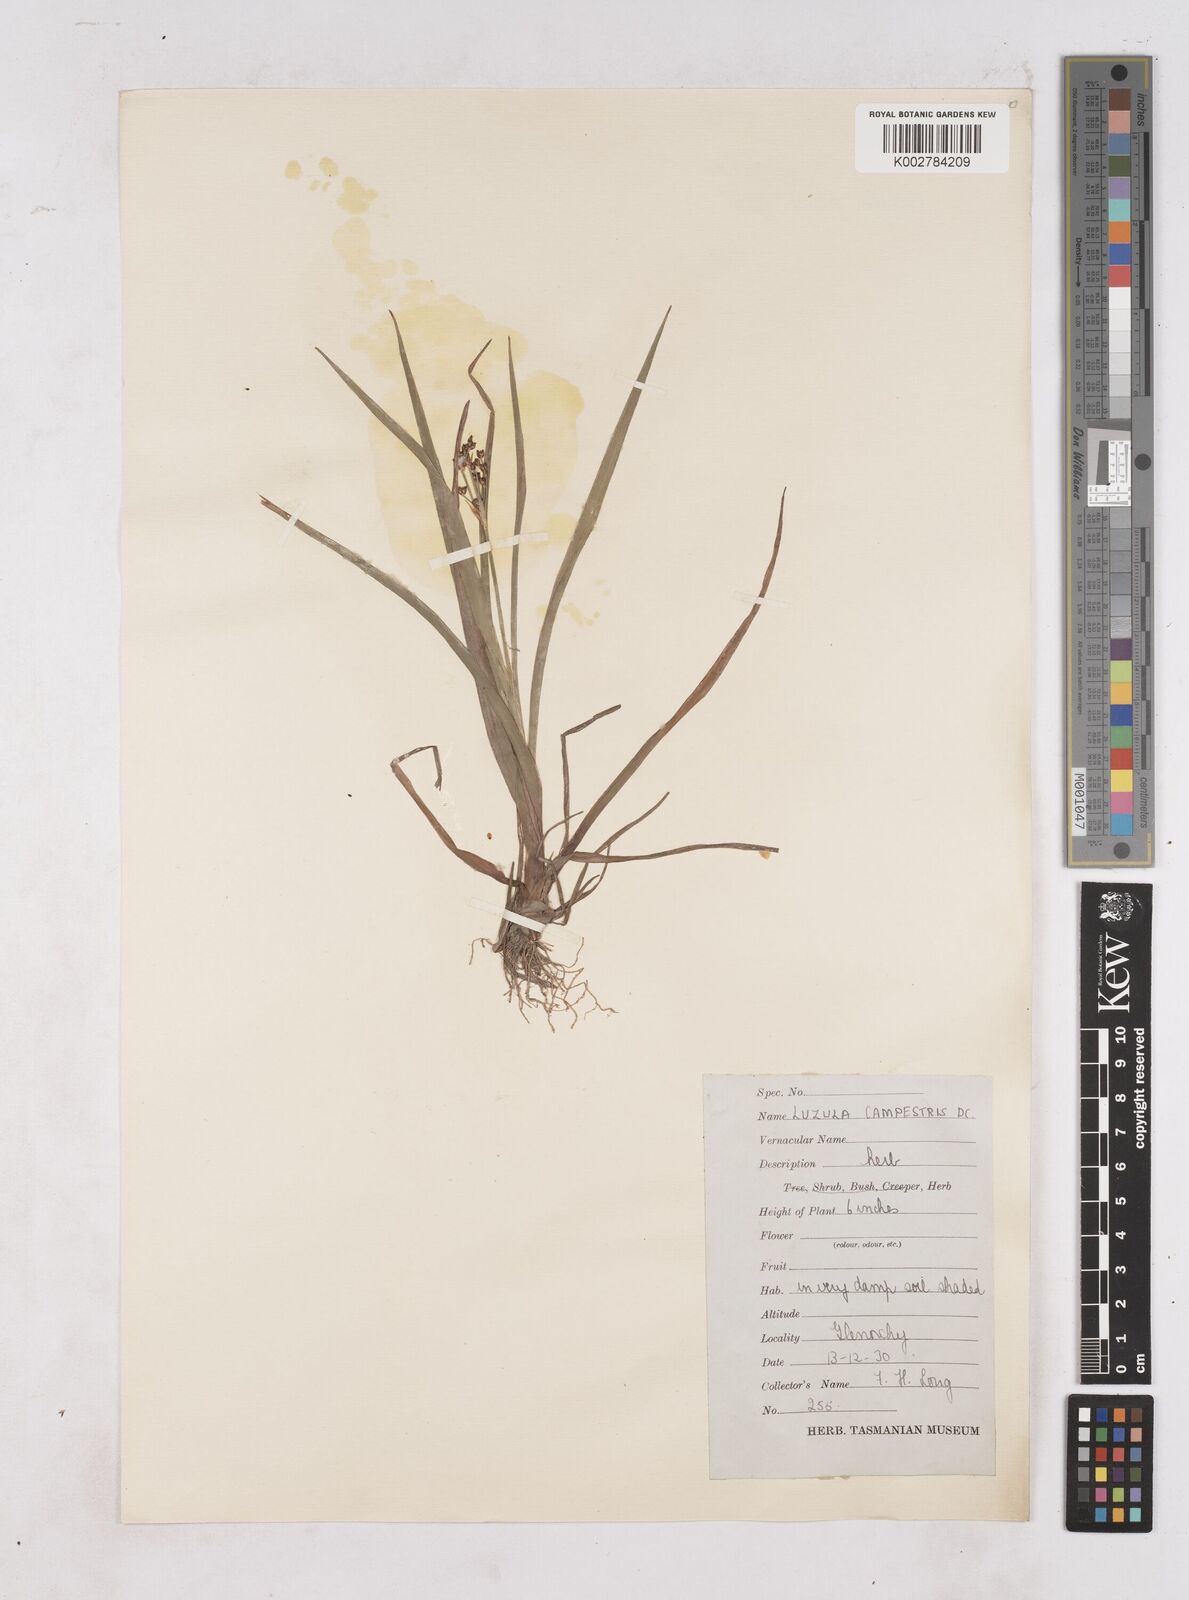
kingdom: Plantae
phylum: Tracheophyta
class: Liliopsida
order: Poales
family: Juncaceae
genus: Luzula
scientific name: Luzula campestris
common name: Field wood-rush
